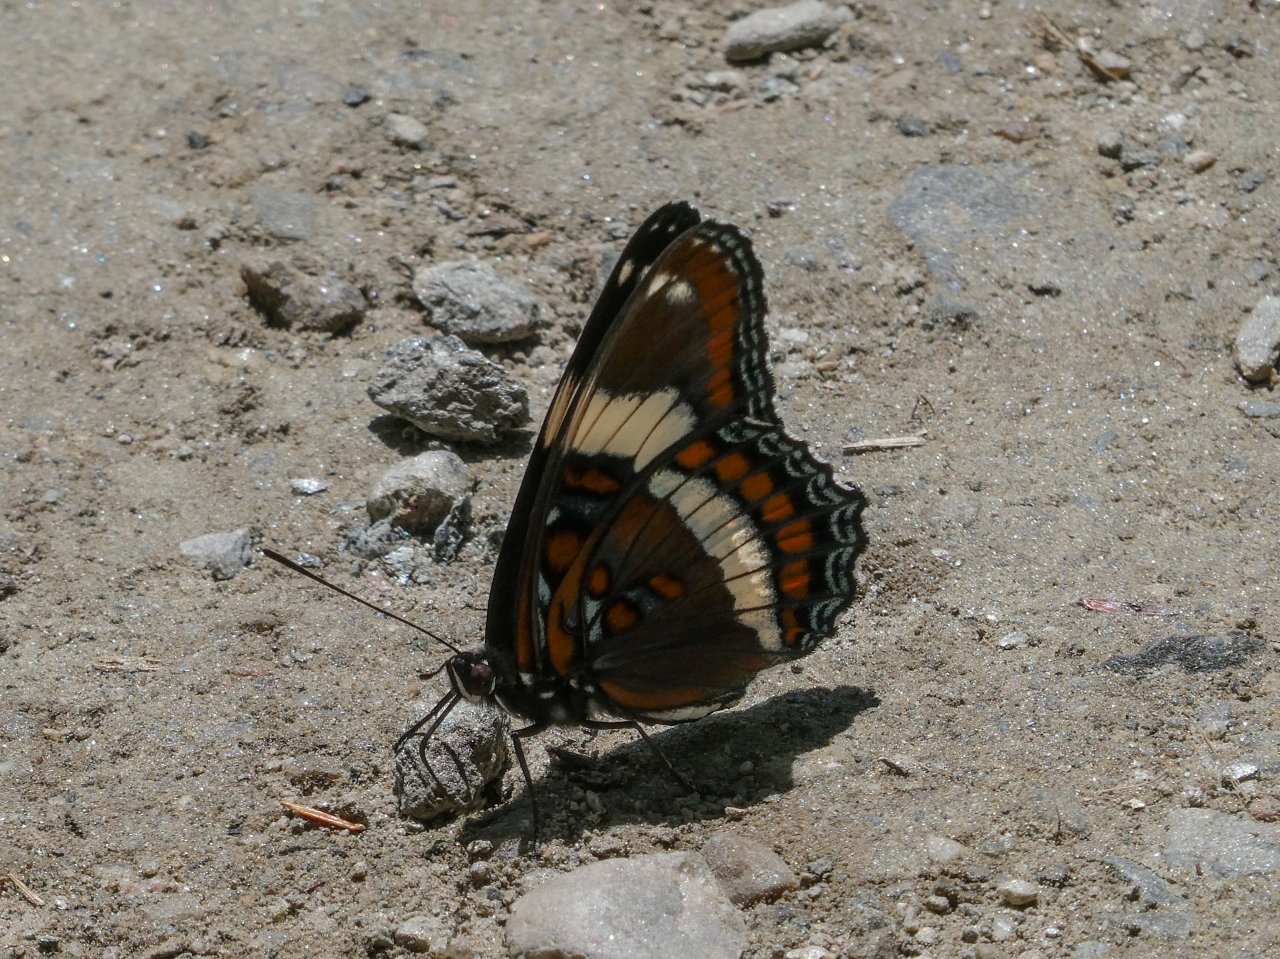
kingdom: Animalia
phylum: Arthropoda
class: Insecta
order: Lepidoptera
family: Nymphalidae
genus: Limenitis
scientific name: Limenitis arthemis
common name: Red-spotted Admiral
